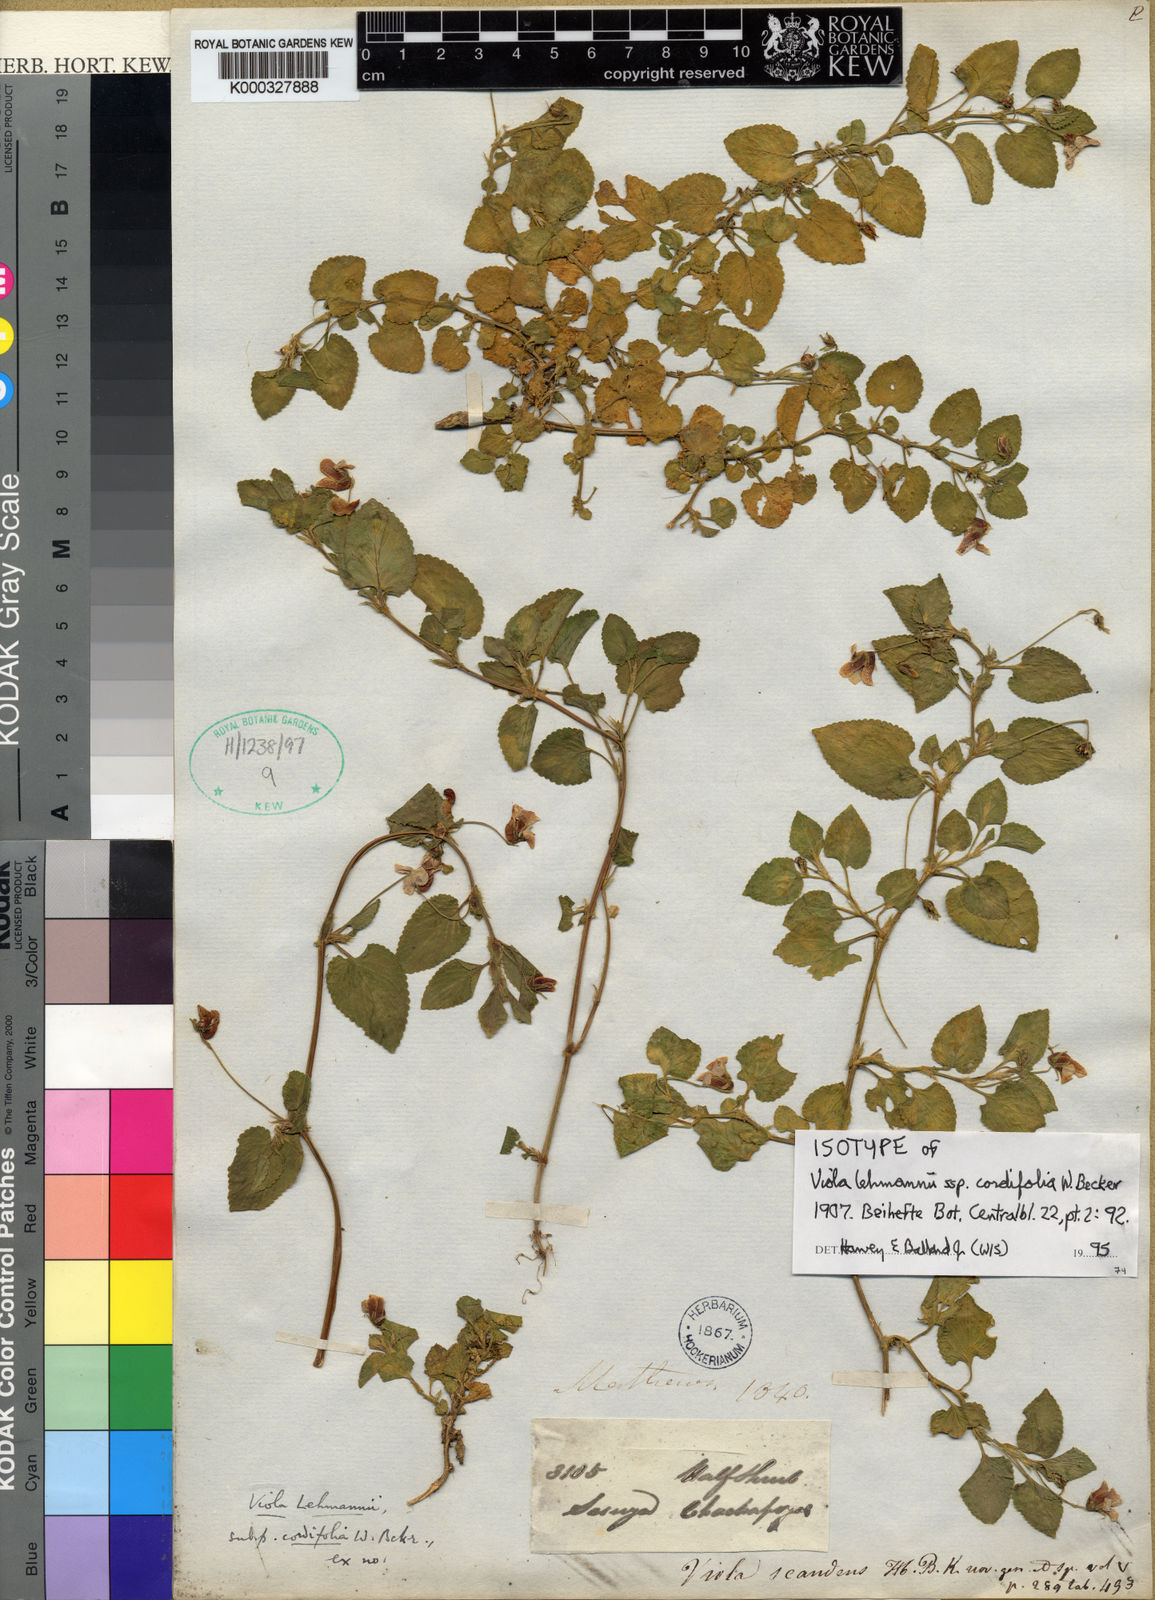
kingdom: Plantae
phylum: Tracheophyta
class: Magnoliopsida
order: Malpighiales
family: Violaceae
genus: Viola
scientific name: Viola atropurpurea
